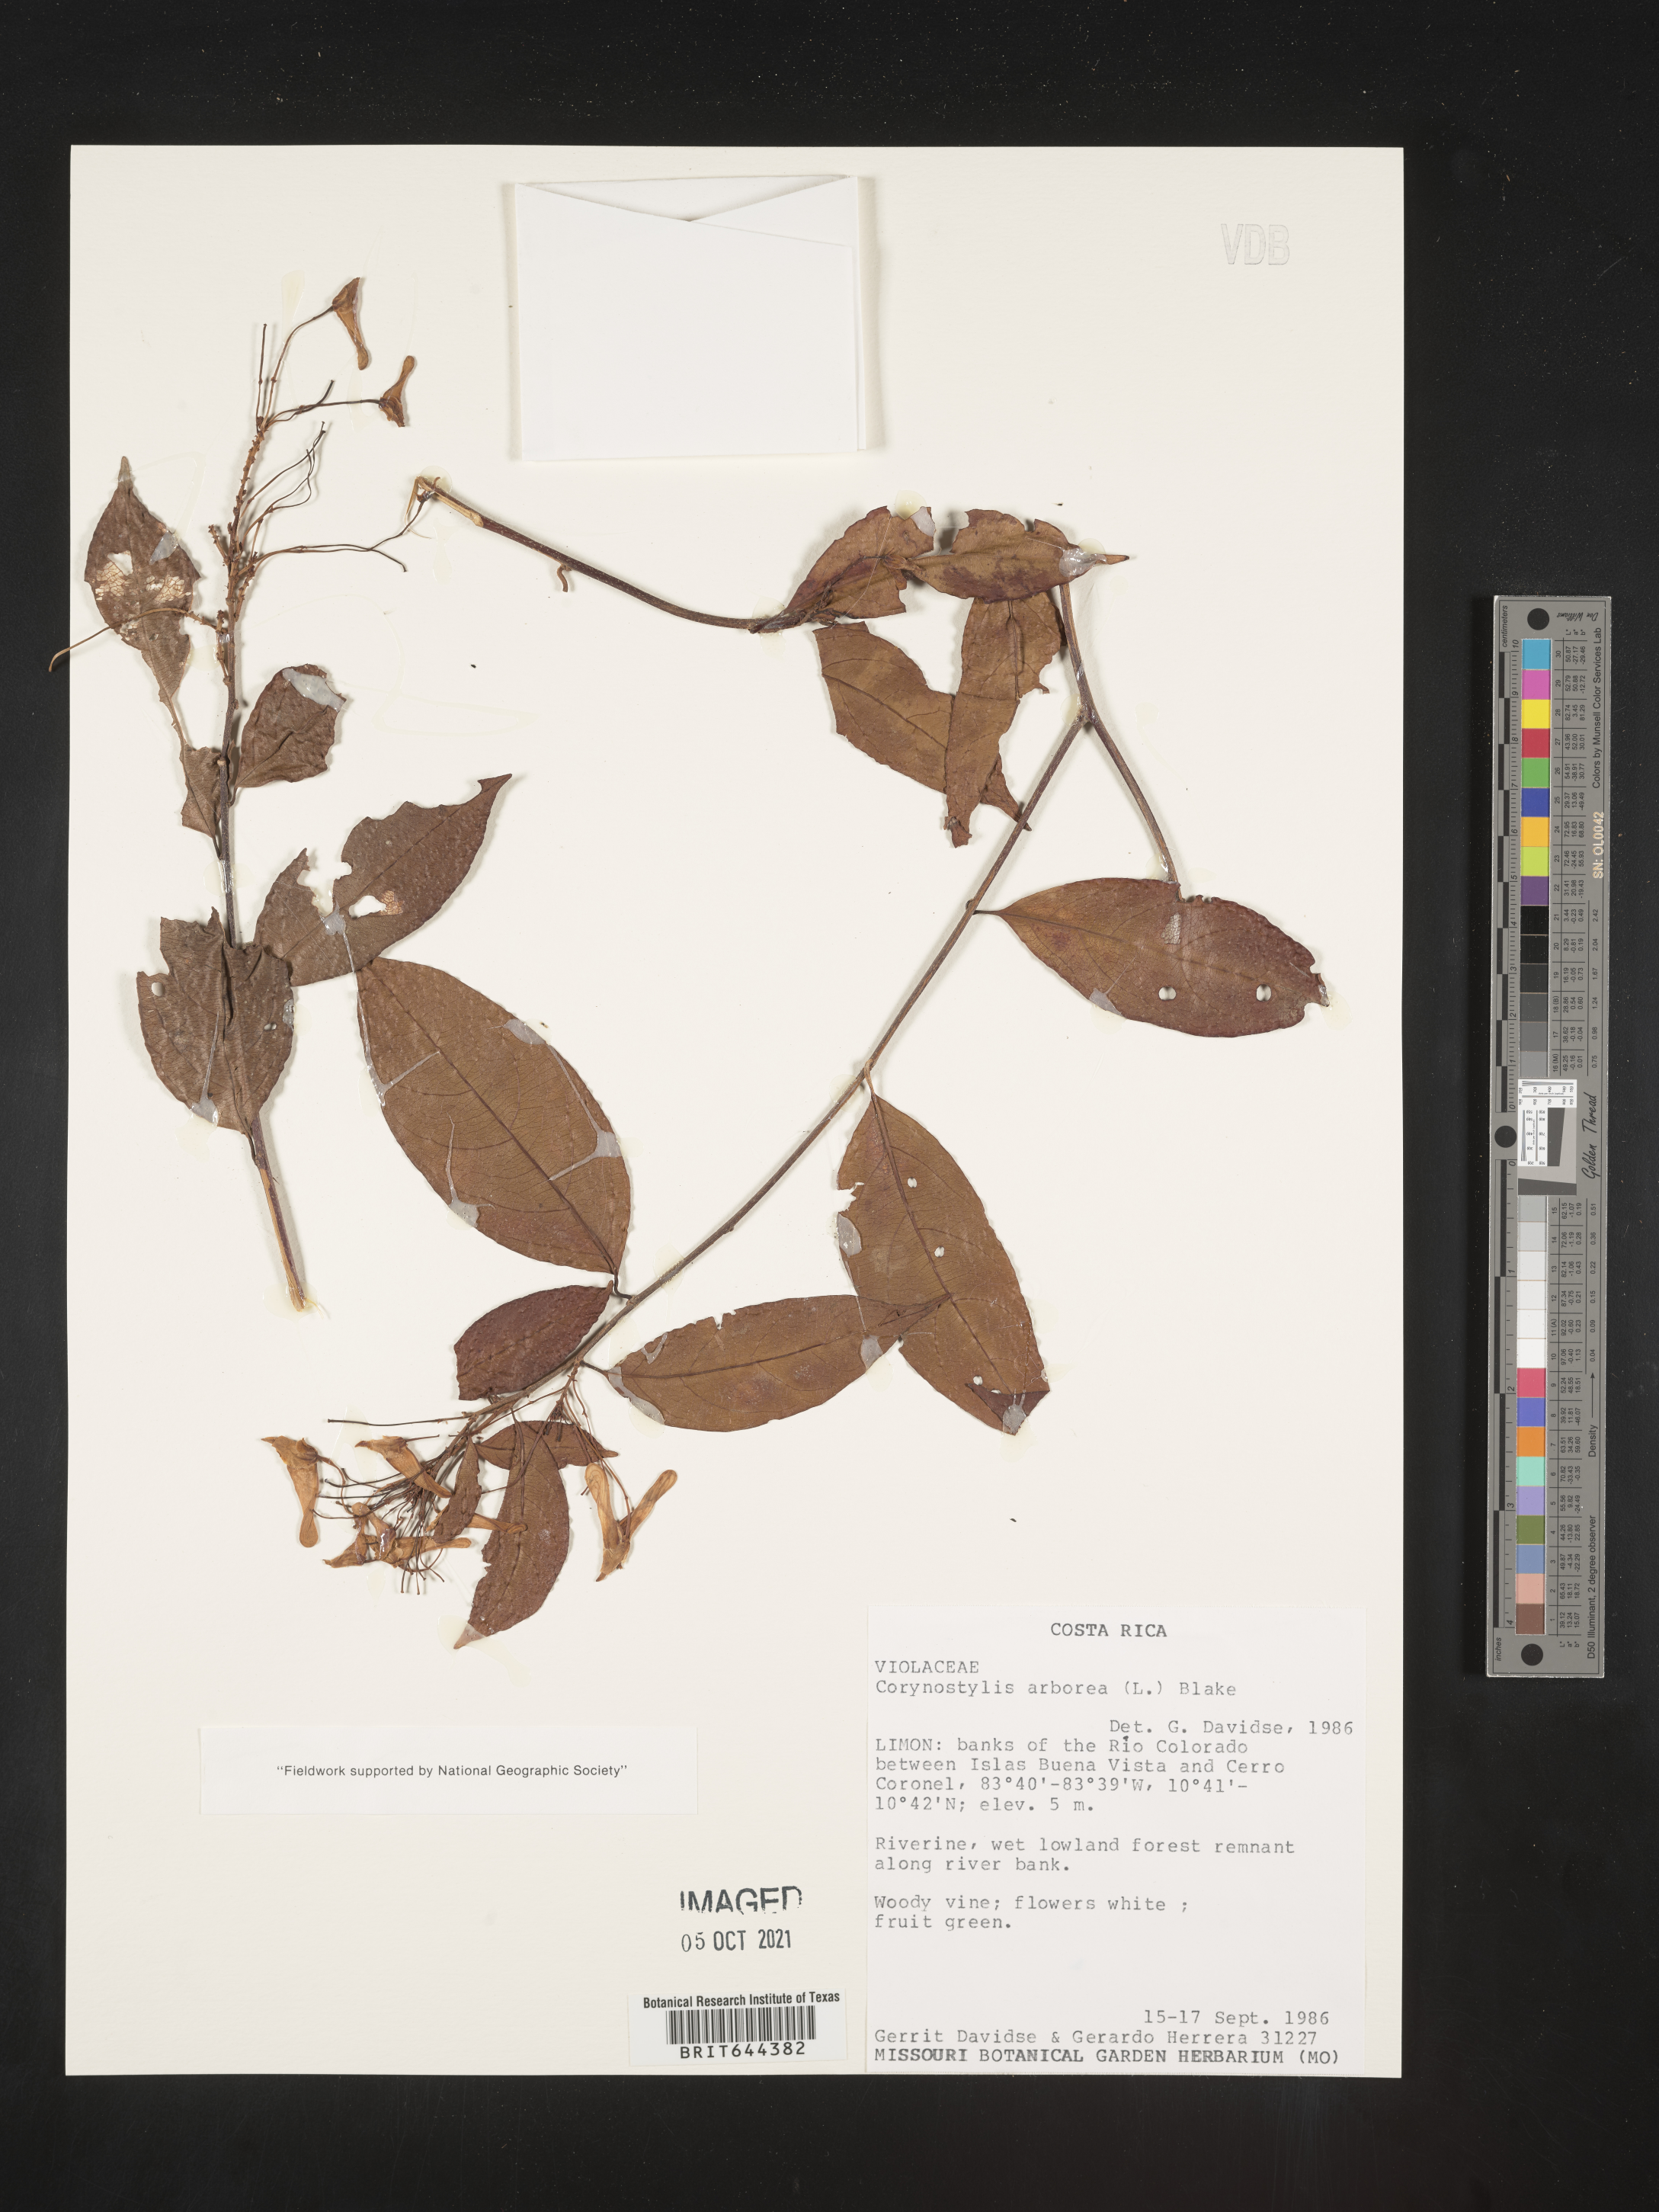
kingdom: Plantae
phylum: Tracheophyta
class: Magnoliopsida
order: Malpighiales
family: Violaceae
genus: Calyptrion
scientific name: Calyptrion
